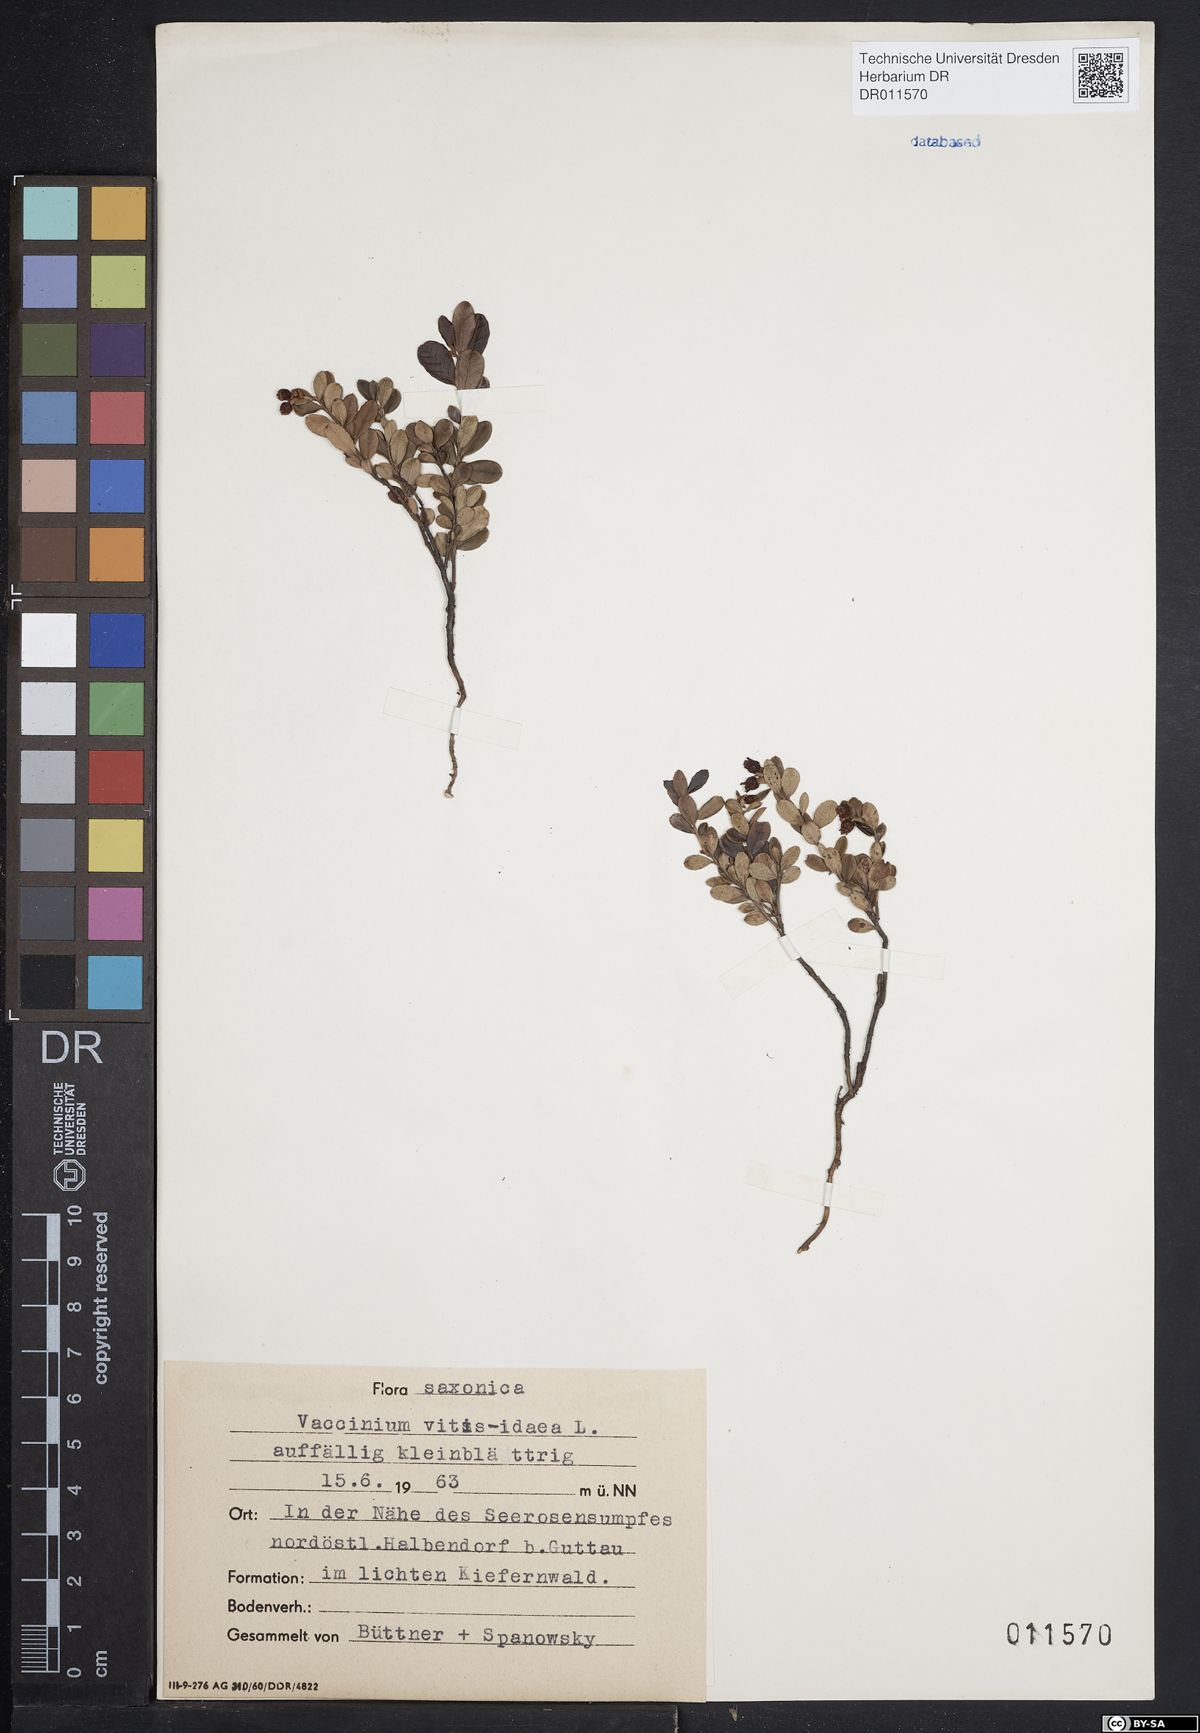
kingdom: Plantae
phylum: Tracheophyta
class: Magnoliopsida
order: Ericales
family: Ericaceae
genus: Vaccinium
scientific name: Vaccinium vitis-idaea
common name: Cowberry
